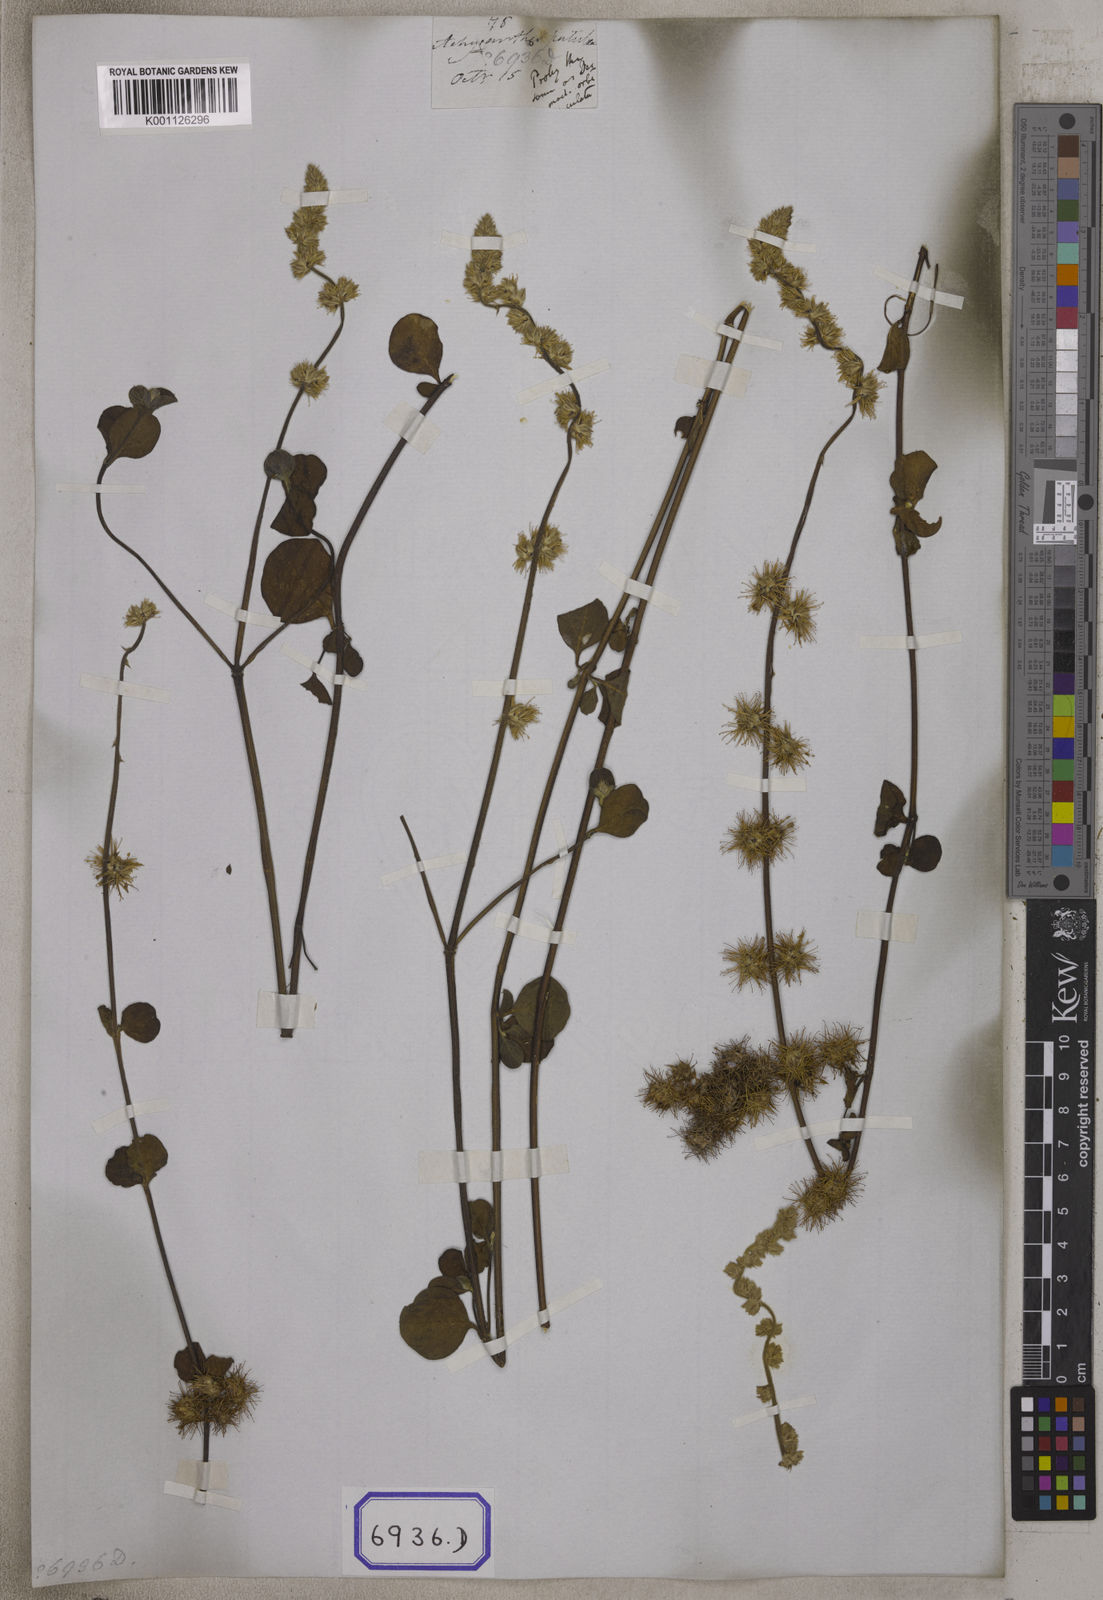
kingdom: Plantae
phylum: Tracheophyta
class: Magnoliopsida
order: Caryophyllales
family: Amaranthaceae
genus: Pupalia
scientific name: Pupalia lappacea
